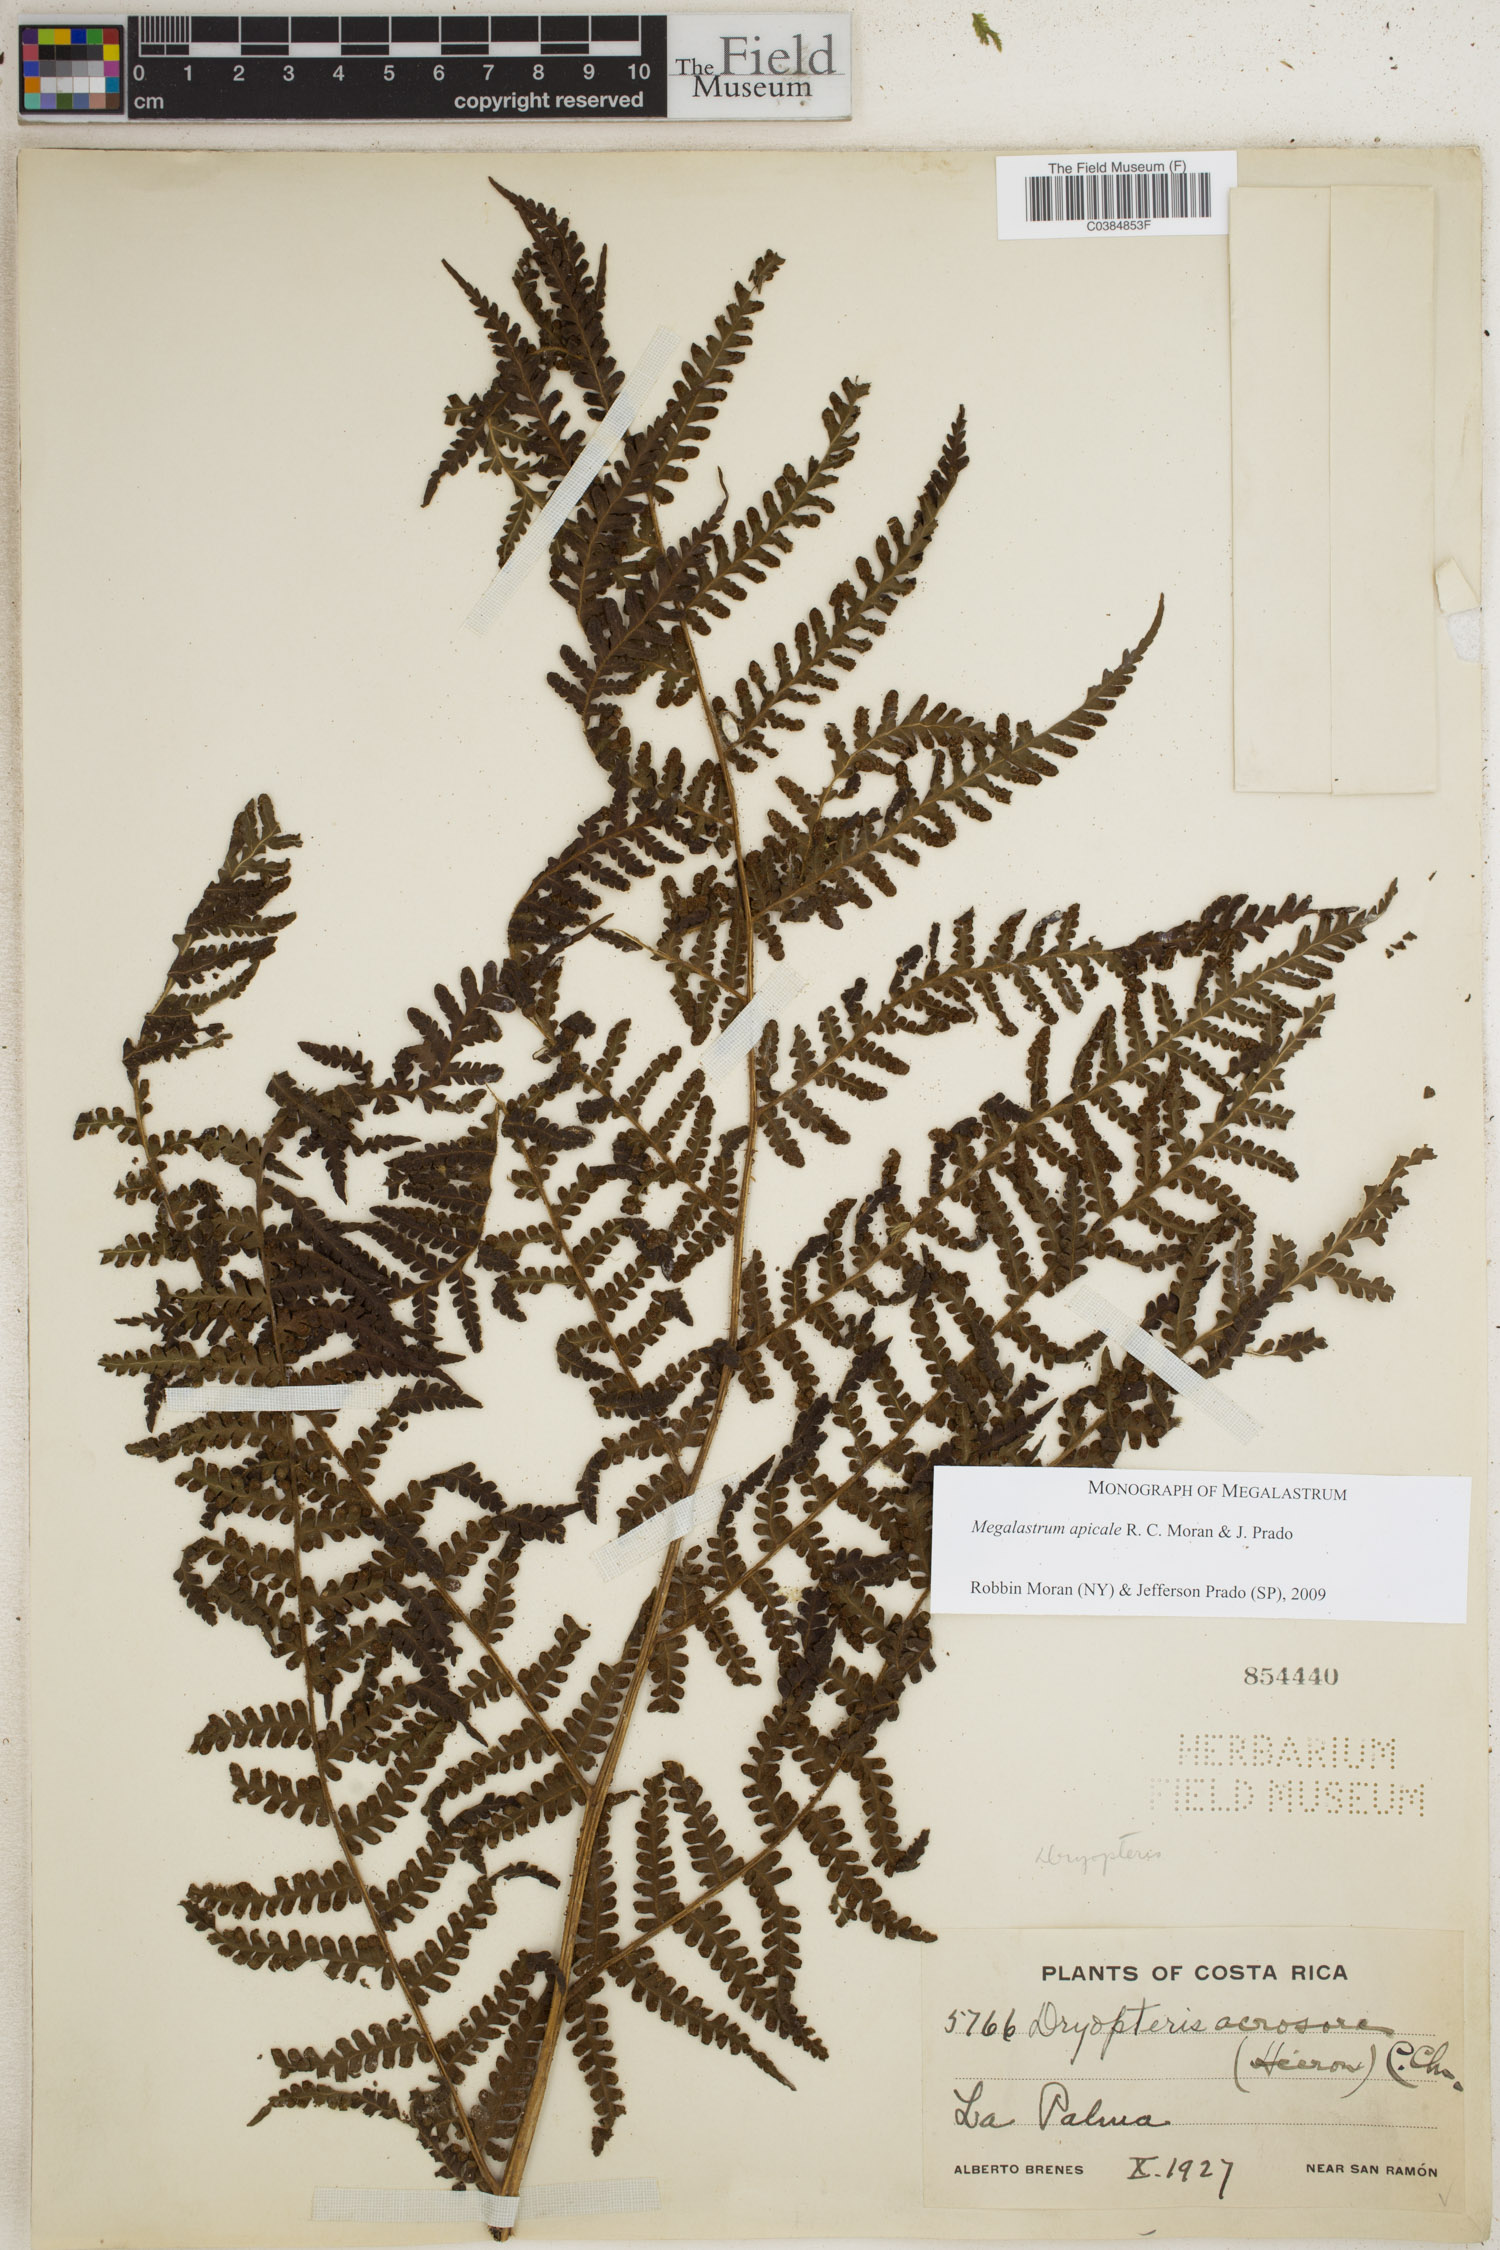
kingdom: Plantae
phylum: Tracheophyta
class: Polypodiopsida
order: Polypodiales
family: Dryopteridaceae
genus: Megalastrum
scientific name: Megalastrum apicale
